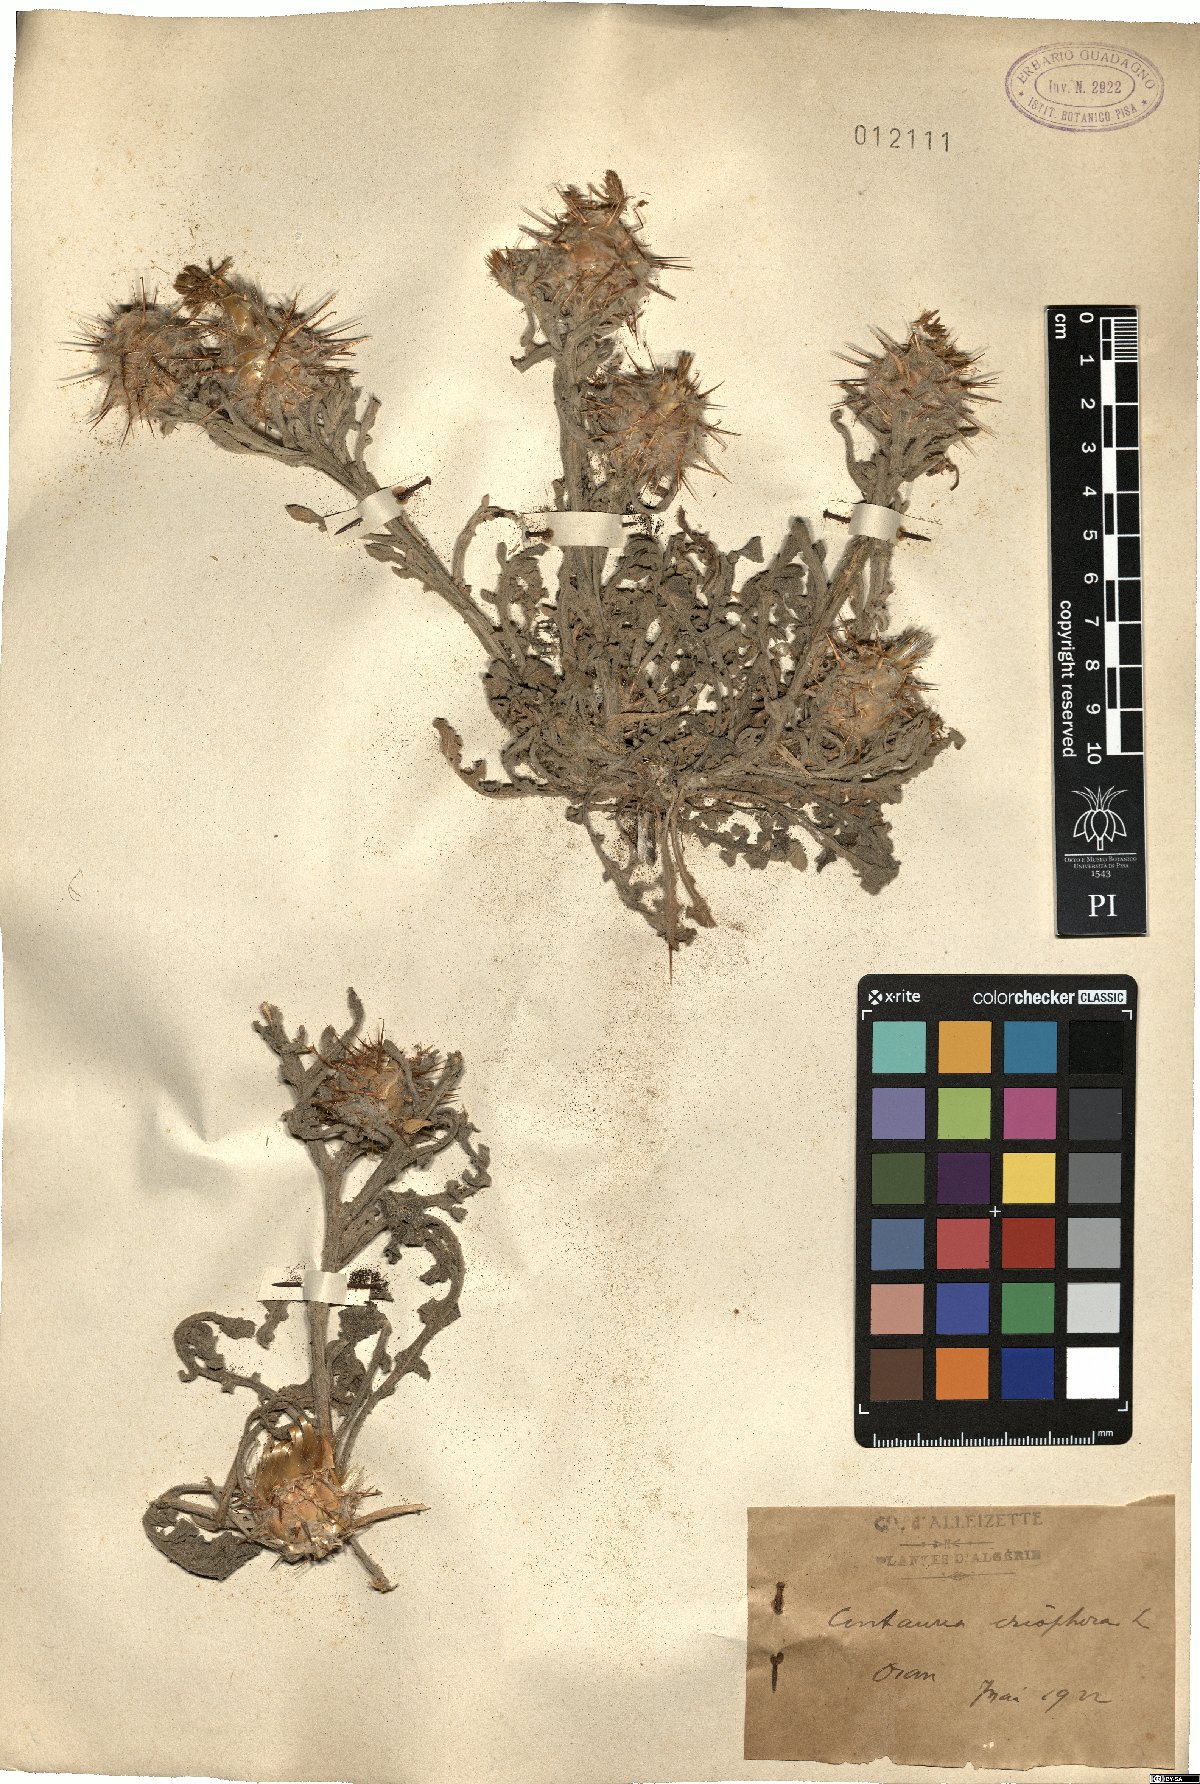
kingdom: Plantae
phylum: Tracheophyta
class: Magnoliopsida
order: Asterales
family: Asteraceae
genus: Centaurea
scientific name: Centaurea eriophora
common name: Wild sandheath
